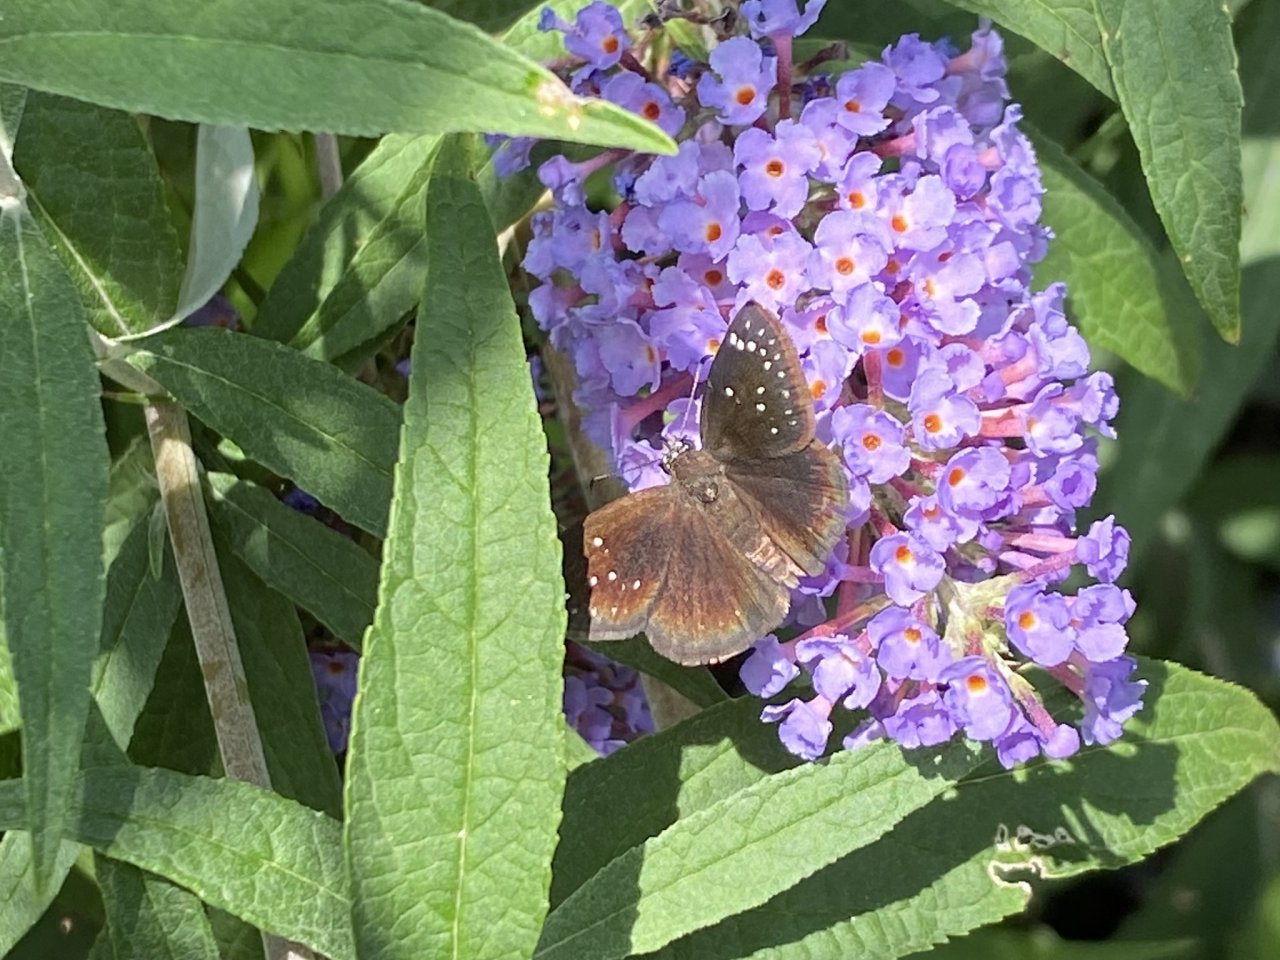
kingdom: Animalia
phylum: Arthropoda
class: Insecta
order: Lepidoptera
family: Hesperiidae
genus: Pholisora
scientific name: Pholisora catullus
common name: Common Sootywing
